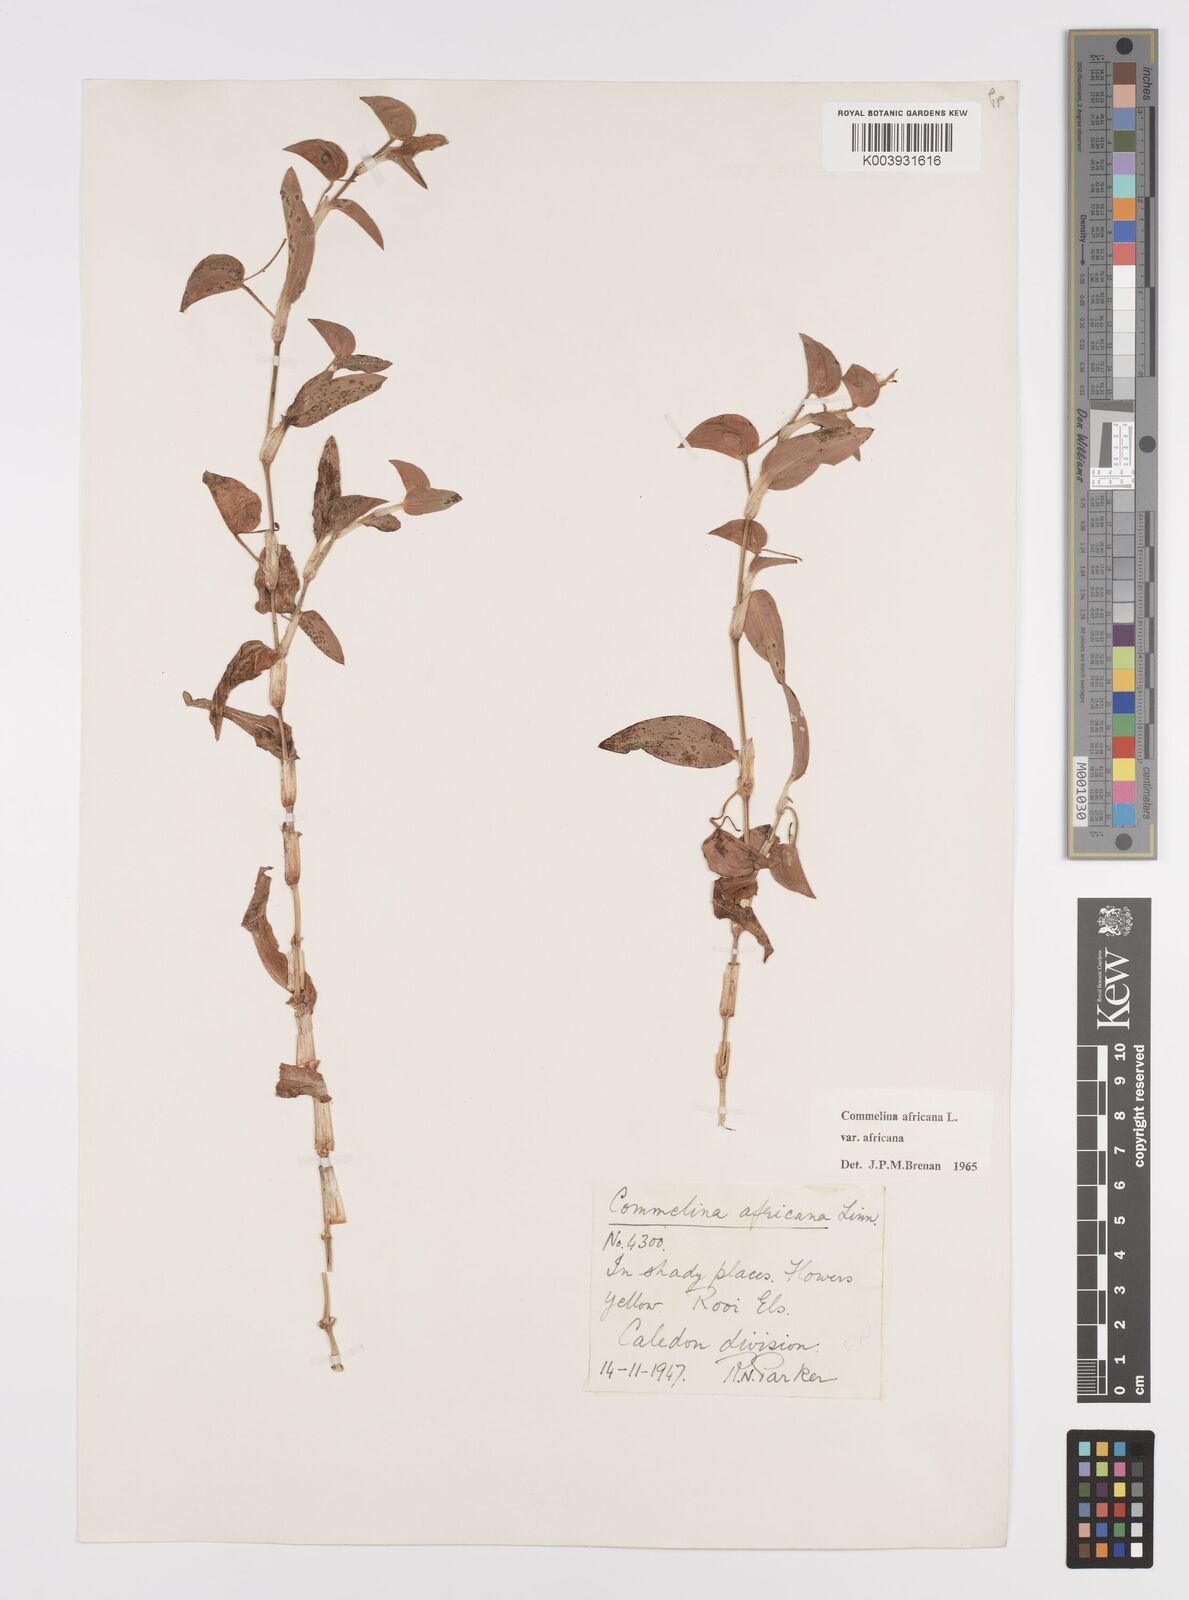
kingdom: Plantae
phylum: Tracheophyta
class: Liliopsida
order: Commelinales
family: Commelinaceae
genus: Commelina
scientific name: Commelina africana
